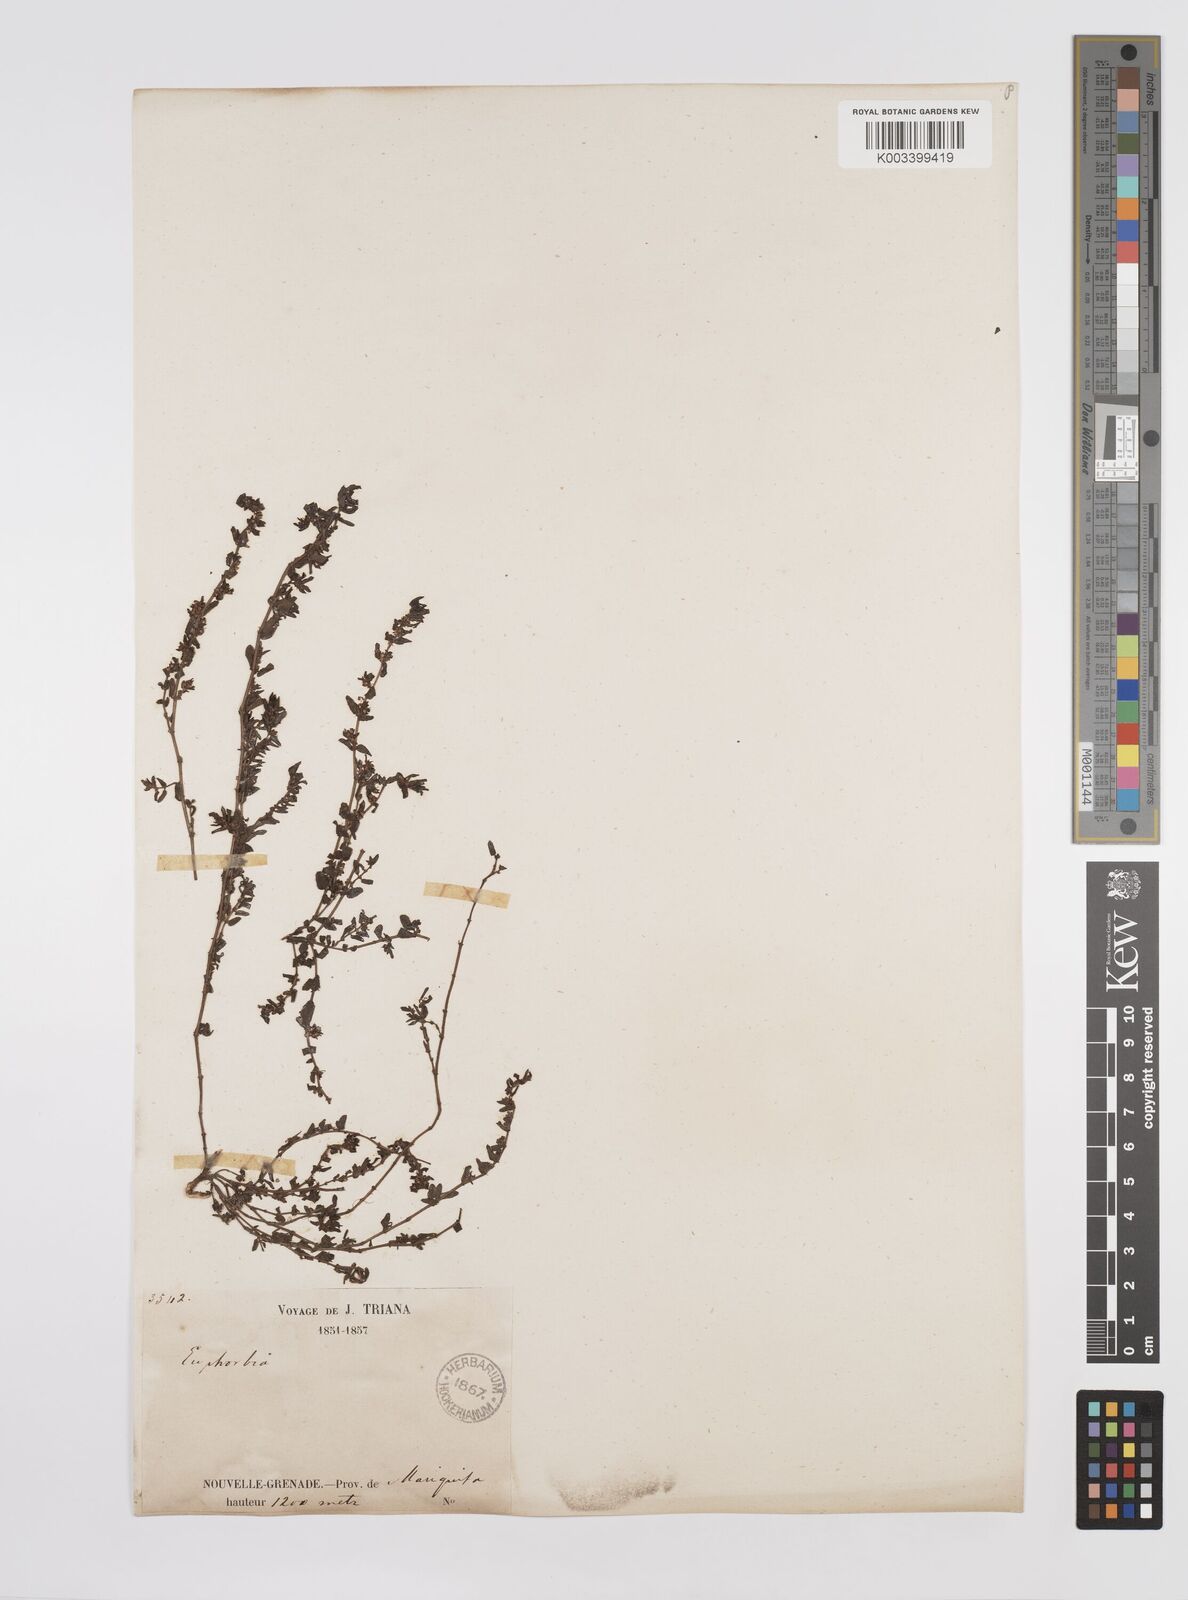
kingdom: Plantae
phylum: Tracheophyta
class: Magnoliopsida
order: Malpighiales
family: Euphorbiaceae
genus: Euphorbia
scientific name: Euphorbia
